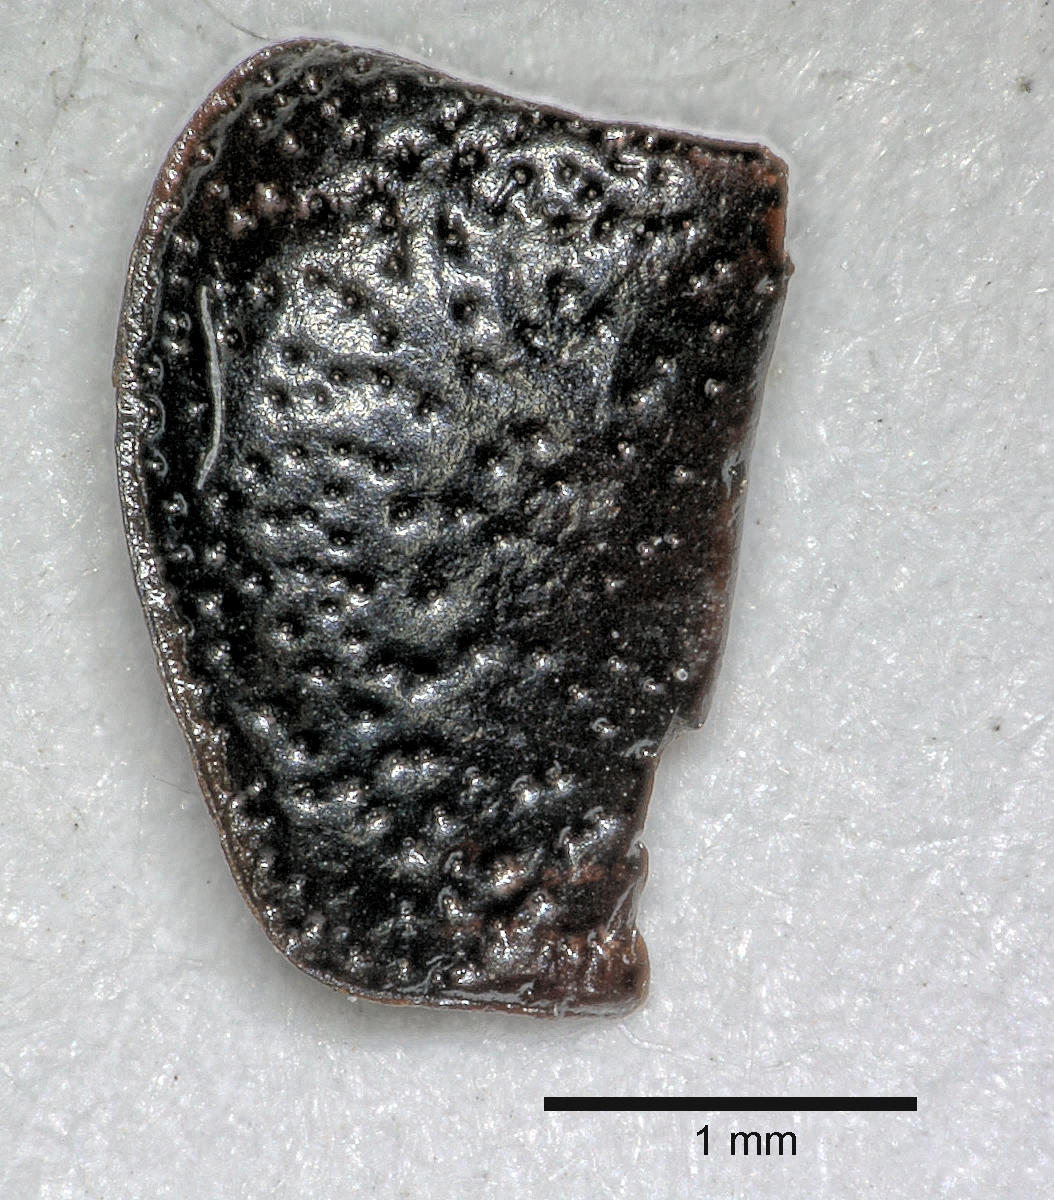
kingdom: Animalia
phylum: Arthropoda
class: Insecta
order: Coleoptera
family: Carabidae
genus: Dicheirus
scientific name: Dicheirus dilatatus
